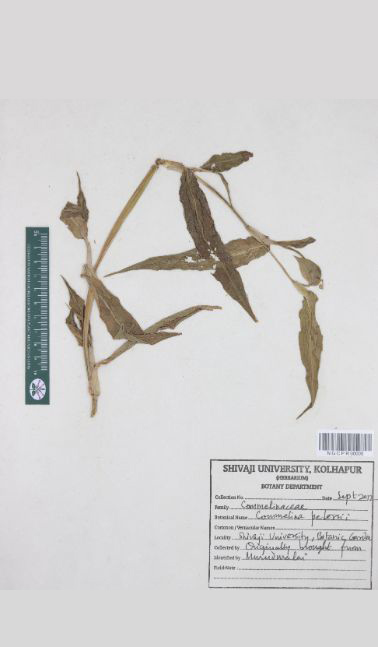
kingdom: Plantae
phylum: Tracheophyta
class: Liliopsida
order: Commelinales
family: Commelinaceae
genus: Commelina
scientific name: Commelina petersii
